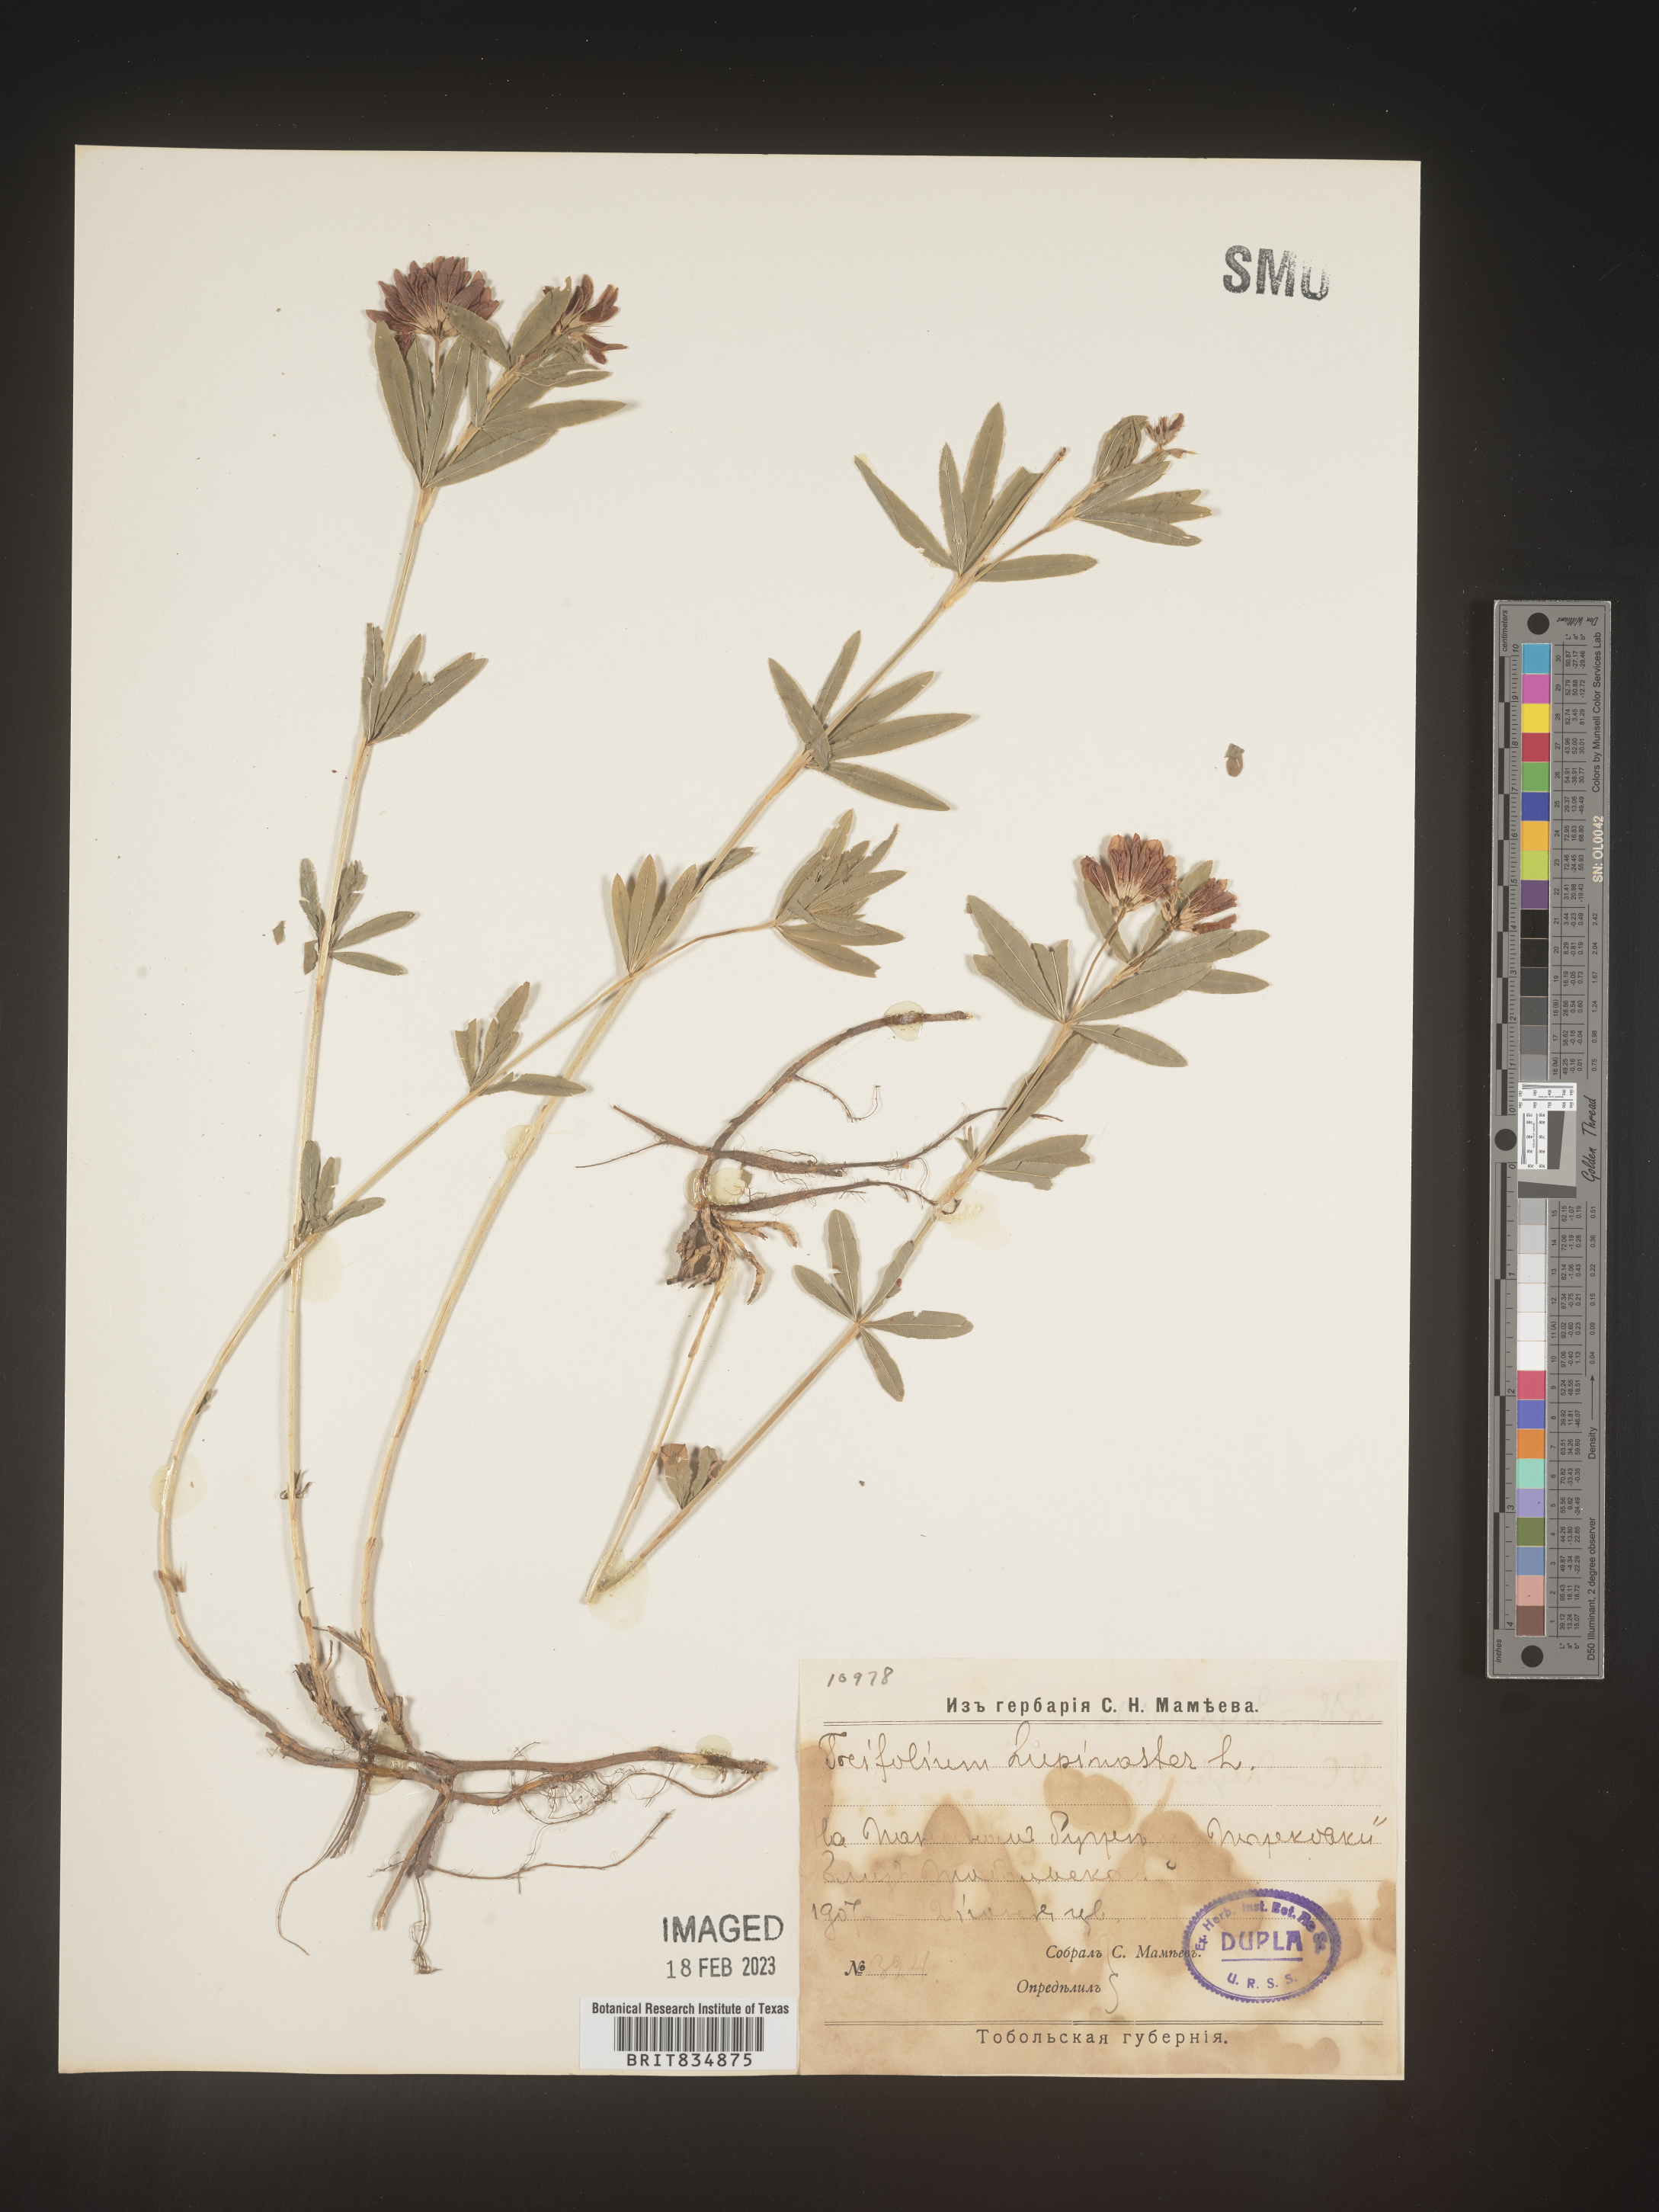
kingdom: Plantae
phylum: Tracheophyta
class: Magnoliopsida
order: Fabales
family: Fabaceae
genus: Trifolium
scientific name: Trifolium incarnatum
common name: Crimson clover
